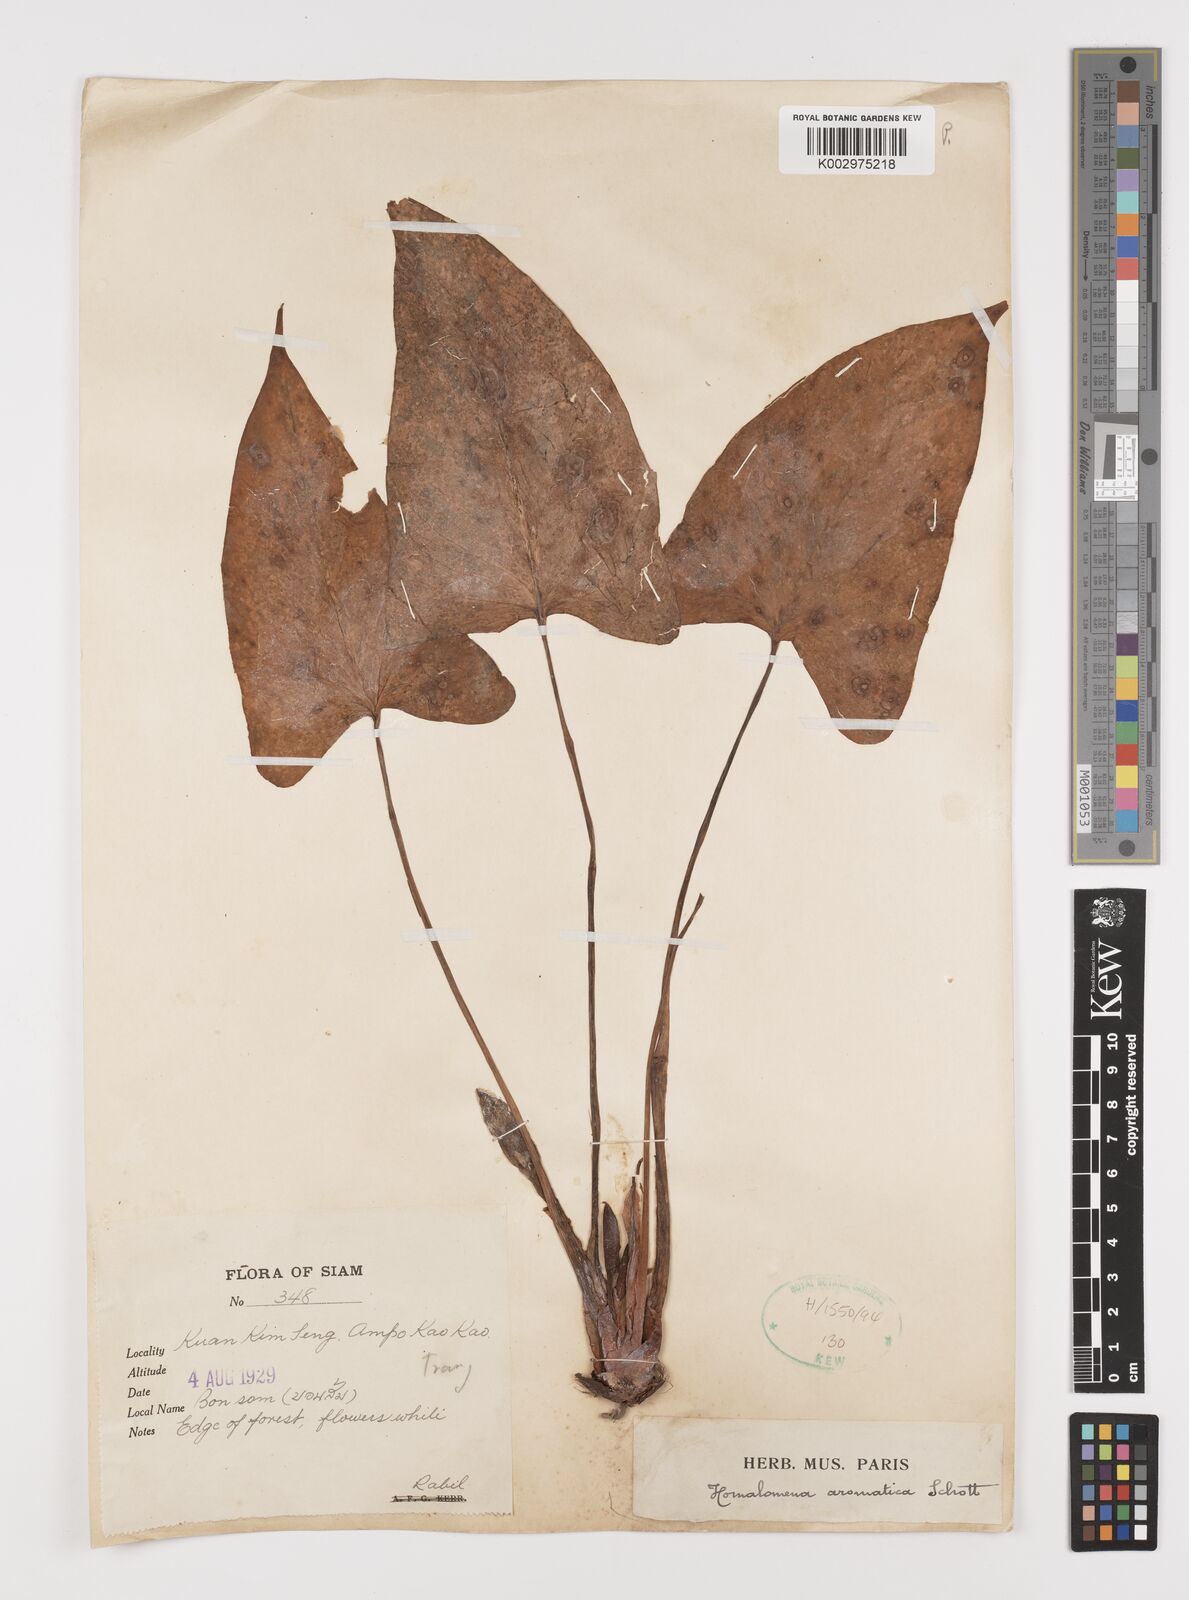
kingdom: Plantae
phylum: Tracheophyta
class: Liliopsida
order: Alismatales
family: Araceae
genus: Homalomena
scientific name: Homalomena aromatica
